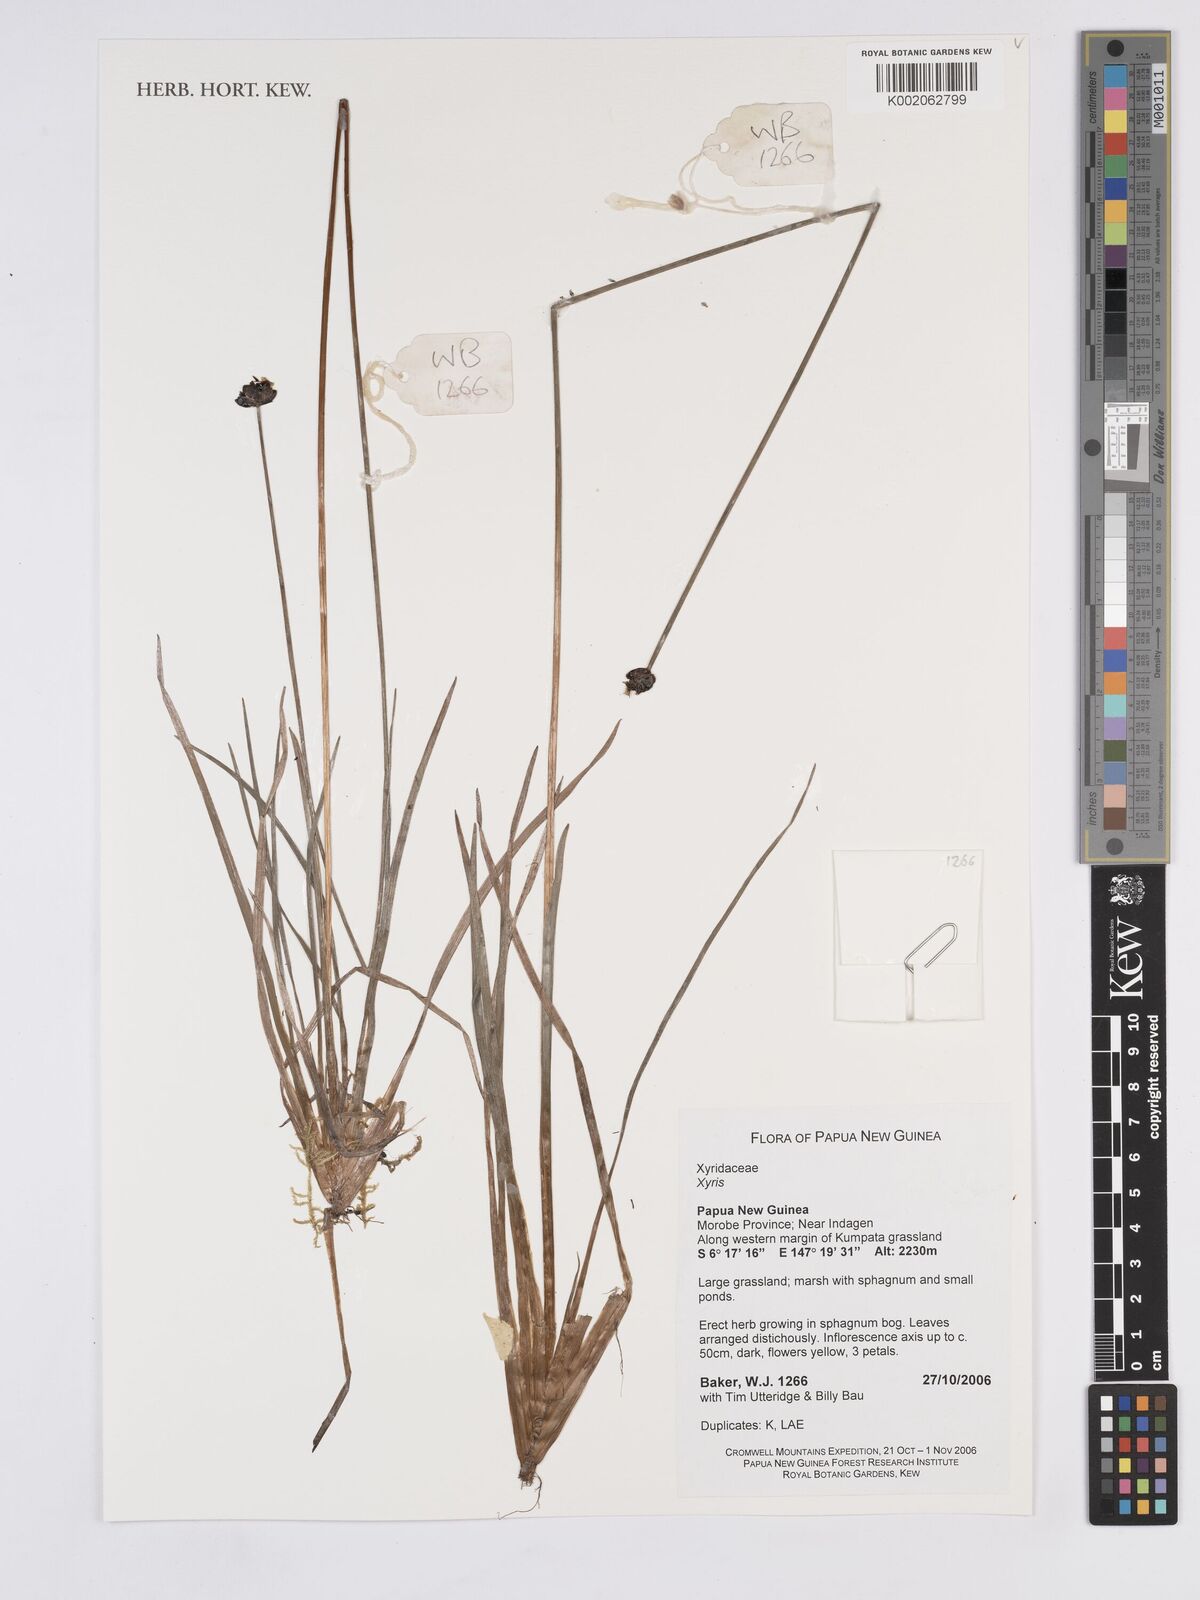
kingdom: Plantae
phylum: Tracheophyta
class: Liliopsida
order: Poales
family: Xyridaceae
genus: Xyris
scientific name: Xyris
